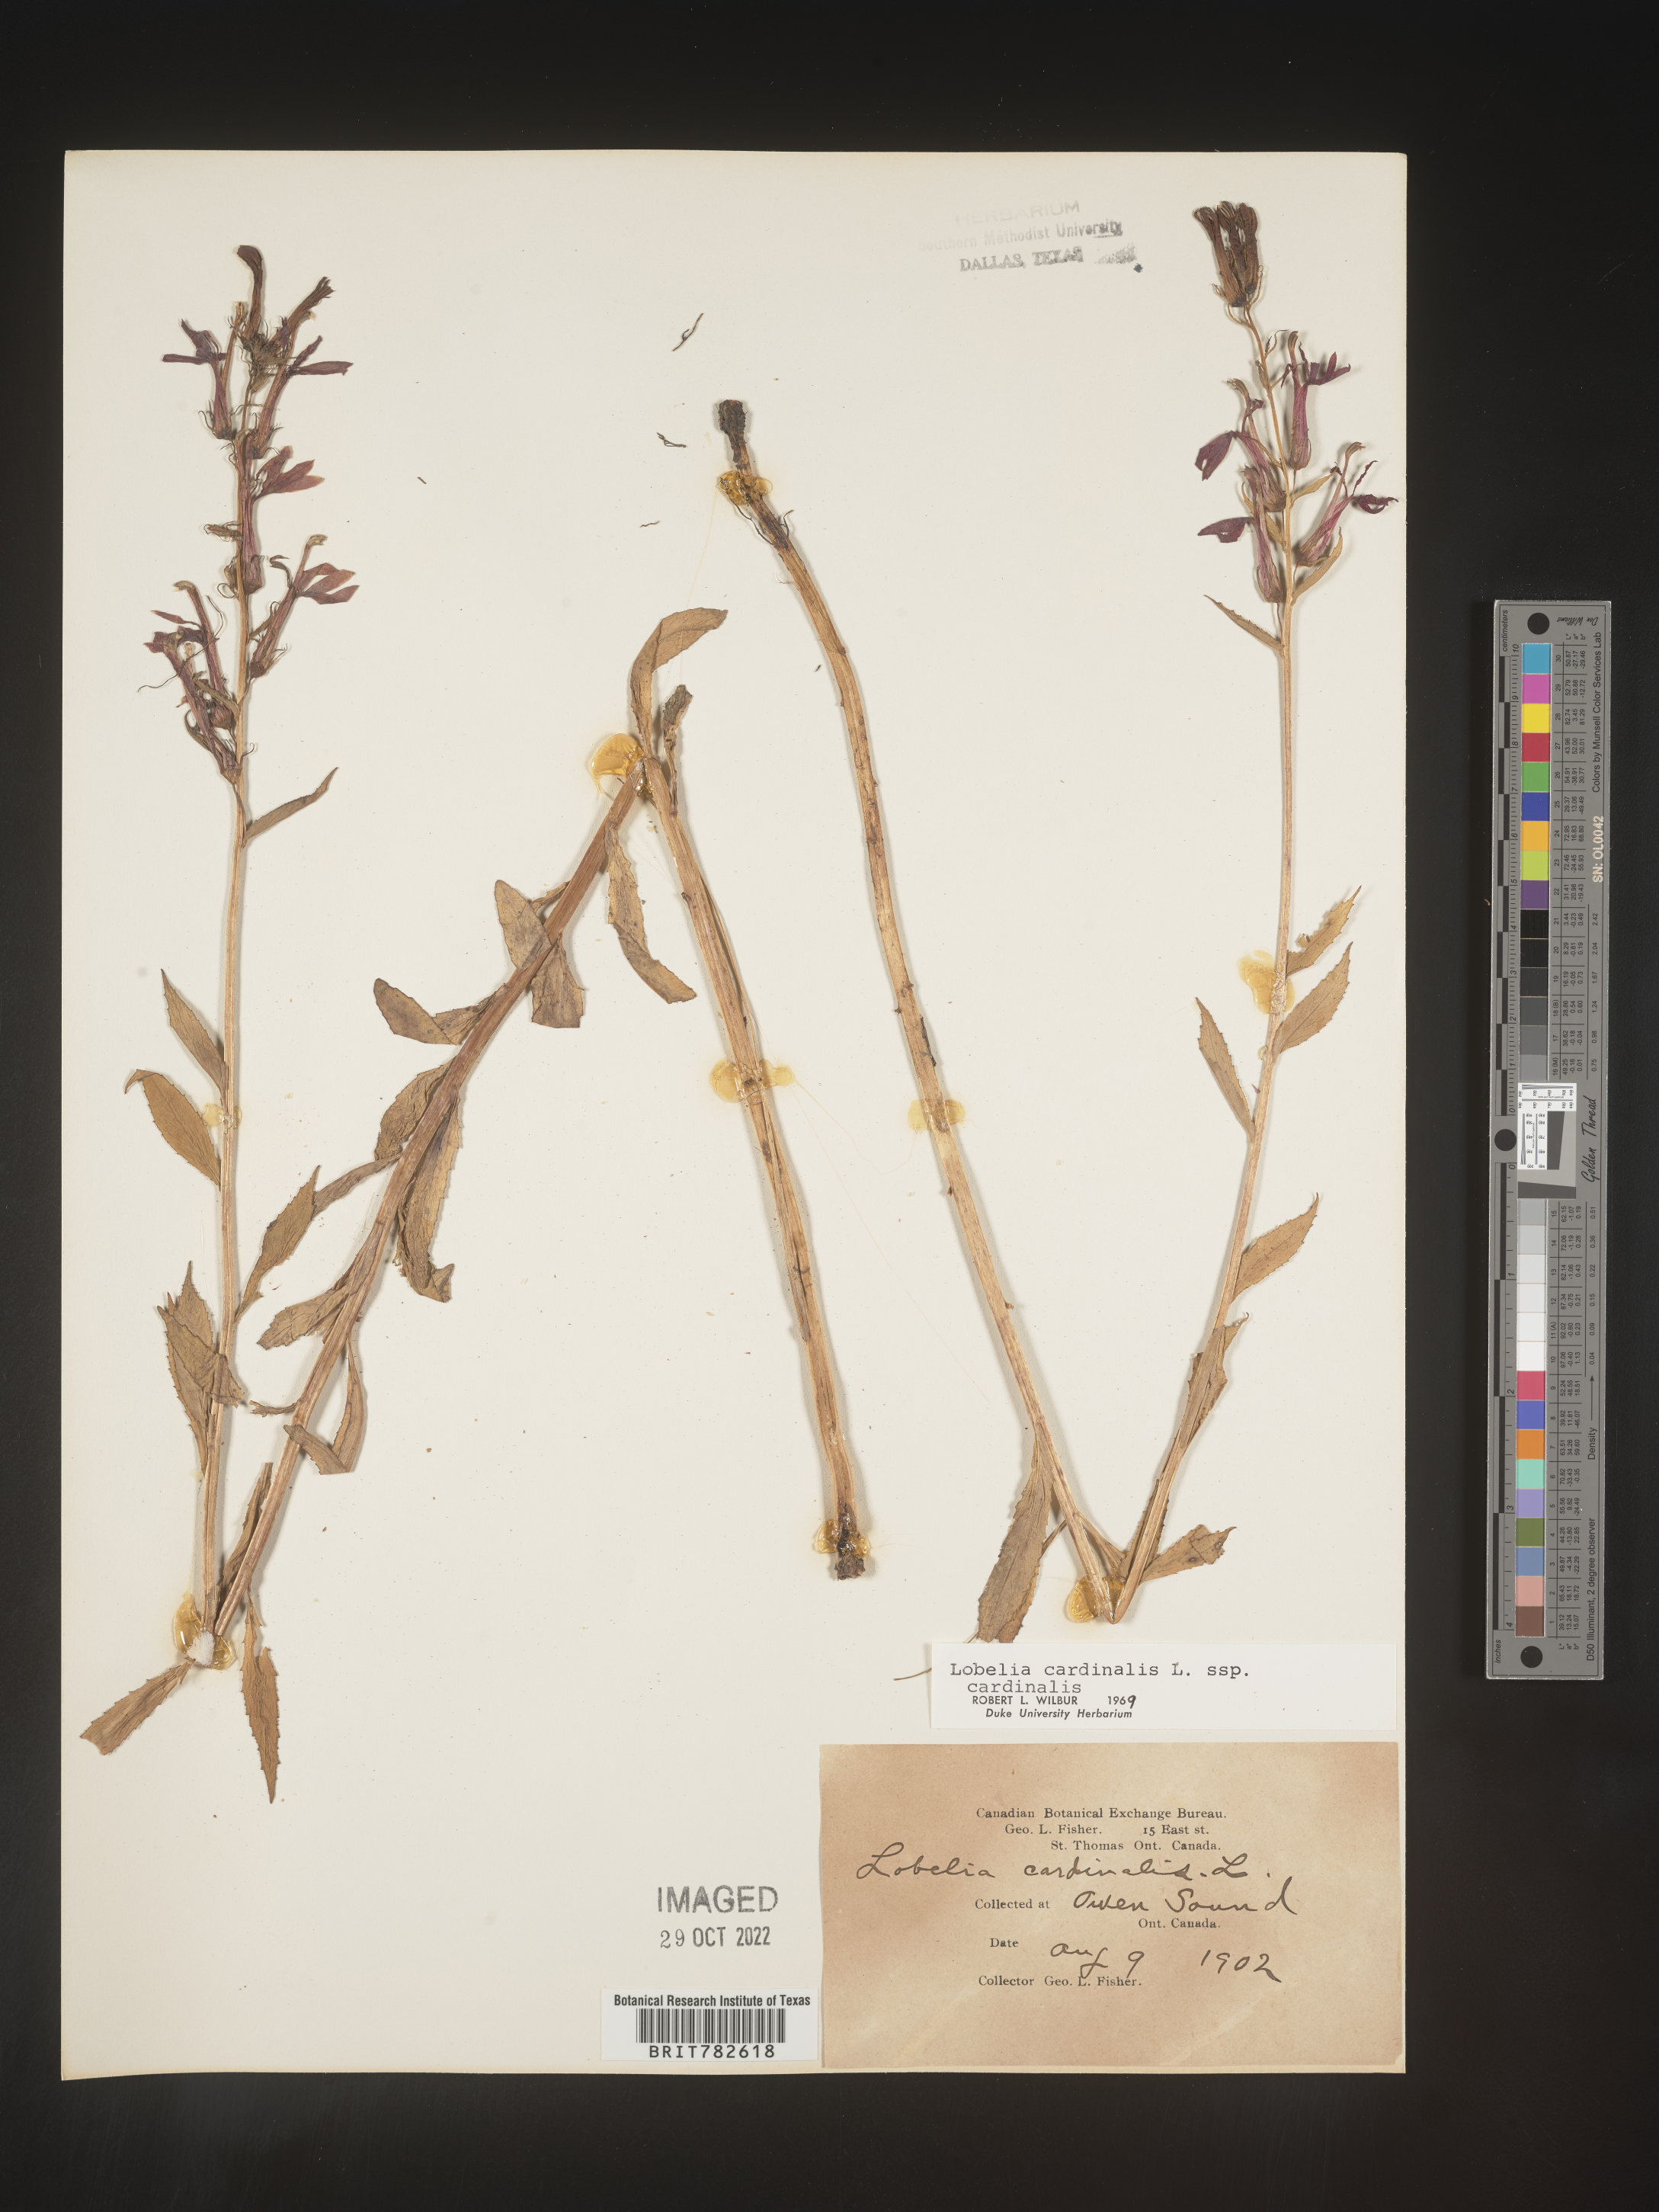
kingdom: Plantae
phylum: Tracheophyta
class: Magnoliopsida
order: Asterales
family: Campanulaceae
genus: Lobelia
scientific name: Lobelia cardinalis
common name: Cardinal flower
